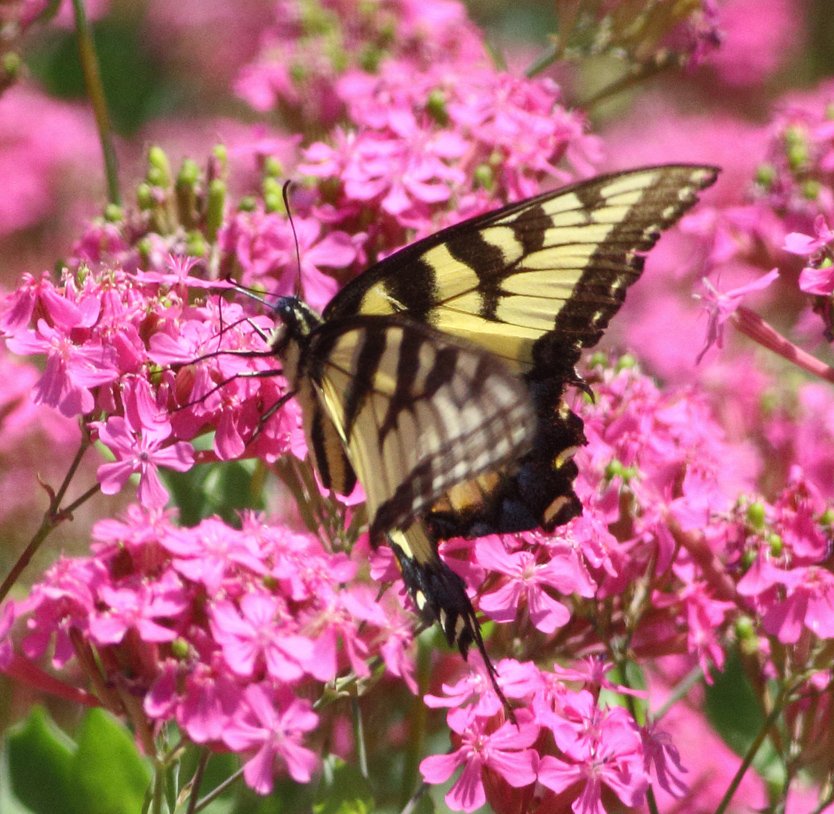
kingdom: Animalia
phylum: Arthropoda
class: Insecta
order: Lepidoptera
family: Papilionidae
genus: Pterourus
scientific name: Pterourus glaucus
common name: Eastern Tiger Swallowtail
